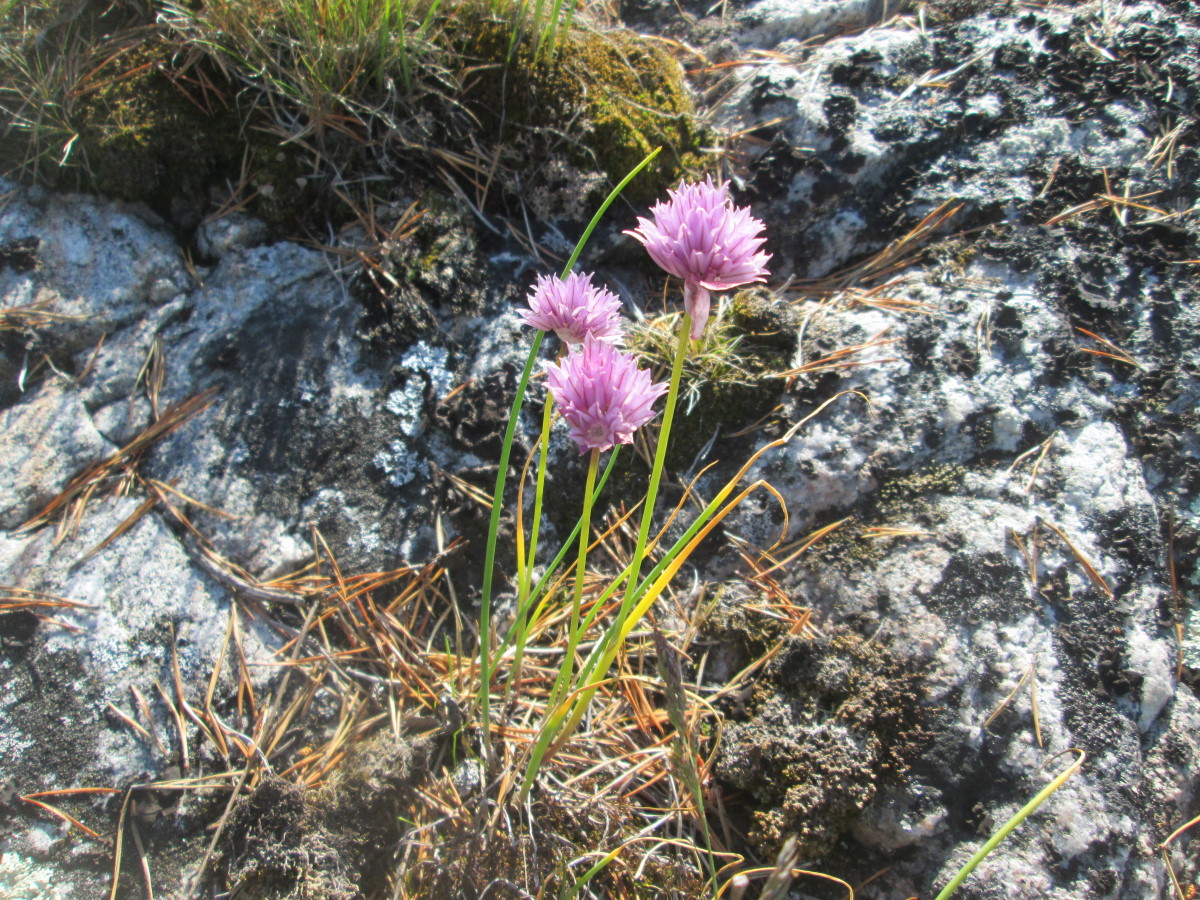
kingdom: Plantae
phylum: Tracheophyta
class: Liliopsida
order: Asparagales
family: Amaryllidaceae
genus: Allium
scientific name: Allium schoenoprasum
